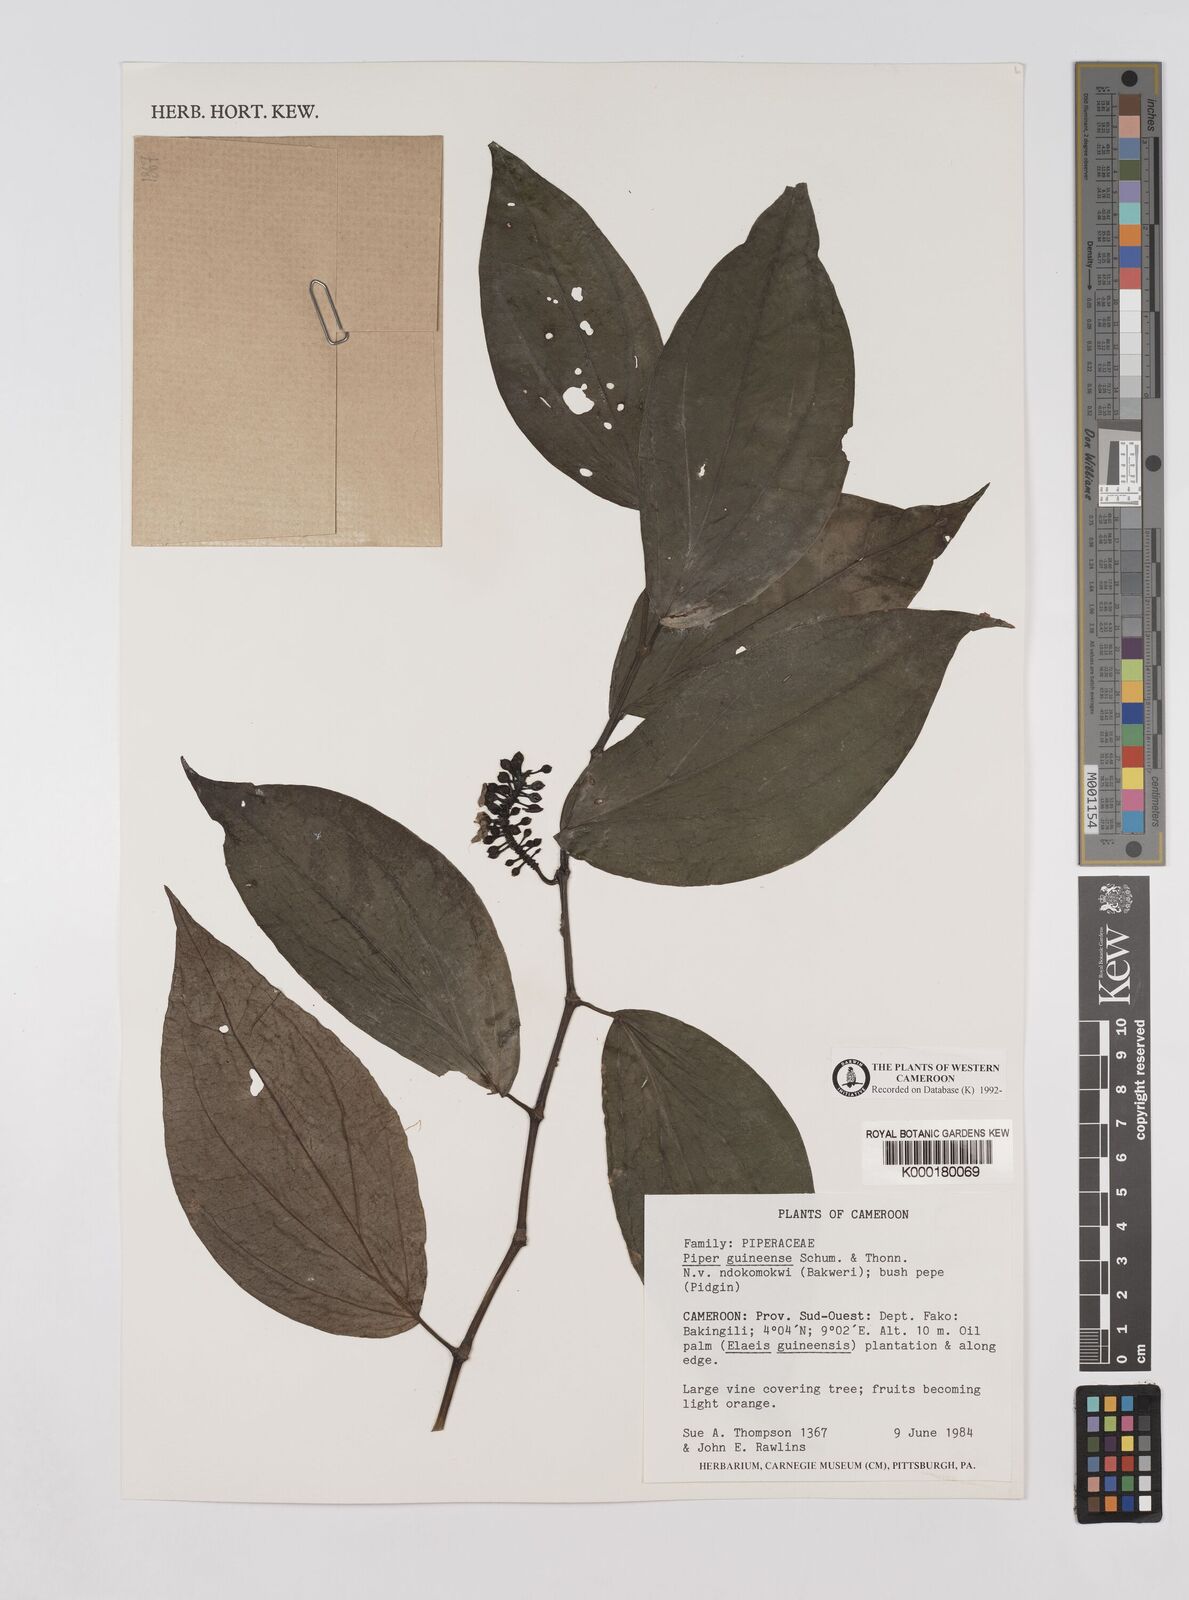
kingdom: Plantae
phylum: Tracheophyta
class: Magnoliopsida
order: Piperales
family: Piperaceae
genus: Piper
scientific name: Piper guineense
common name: Benin pepper
